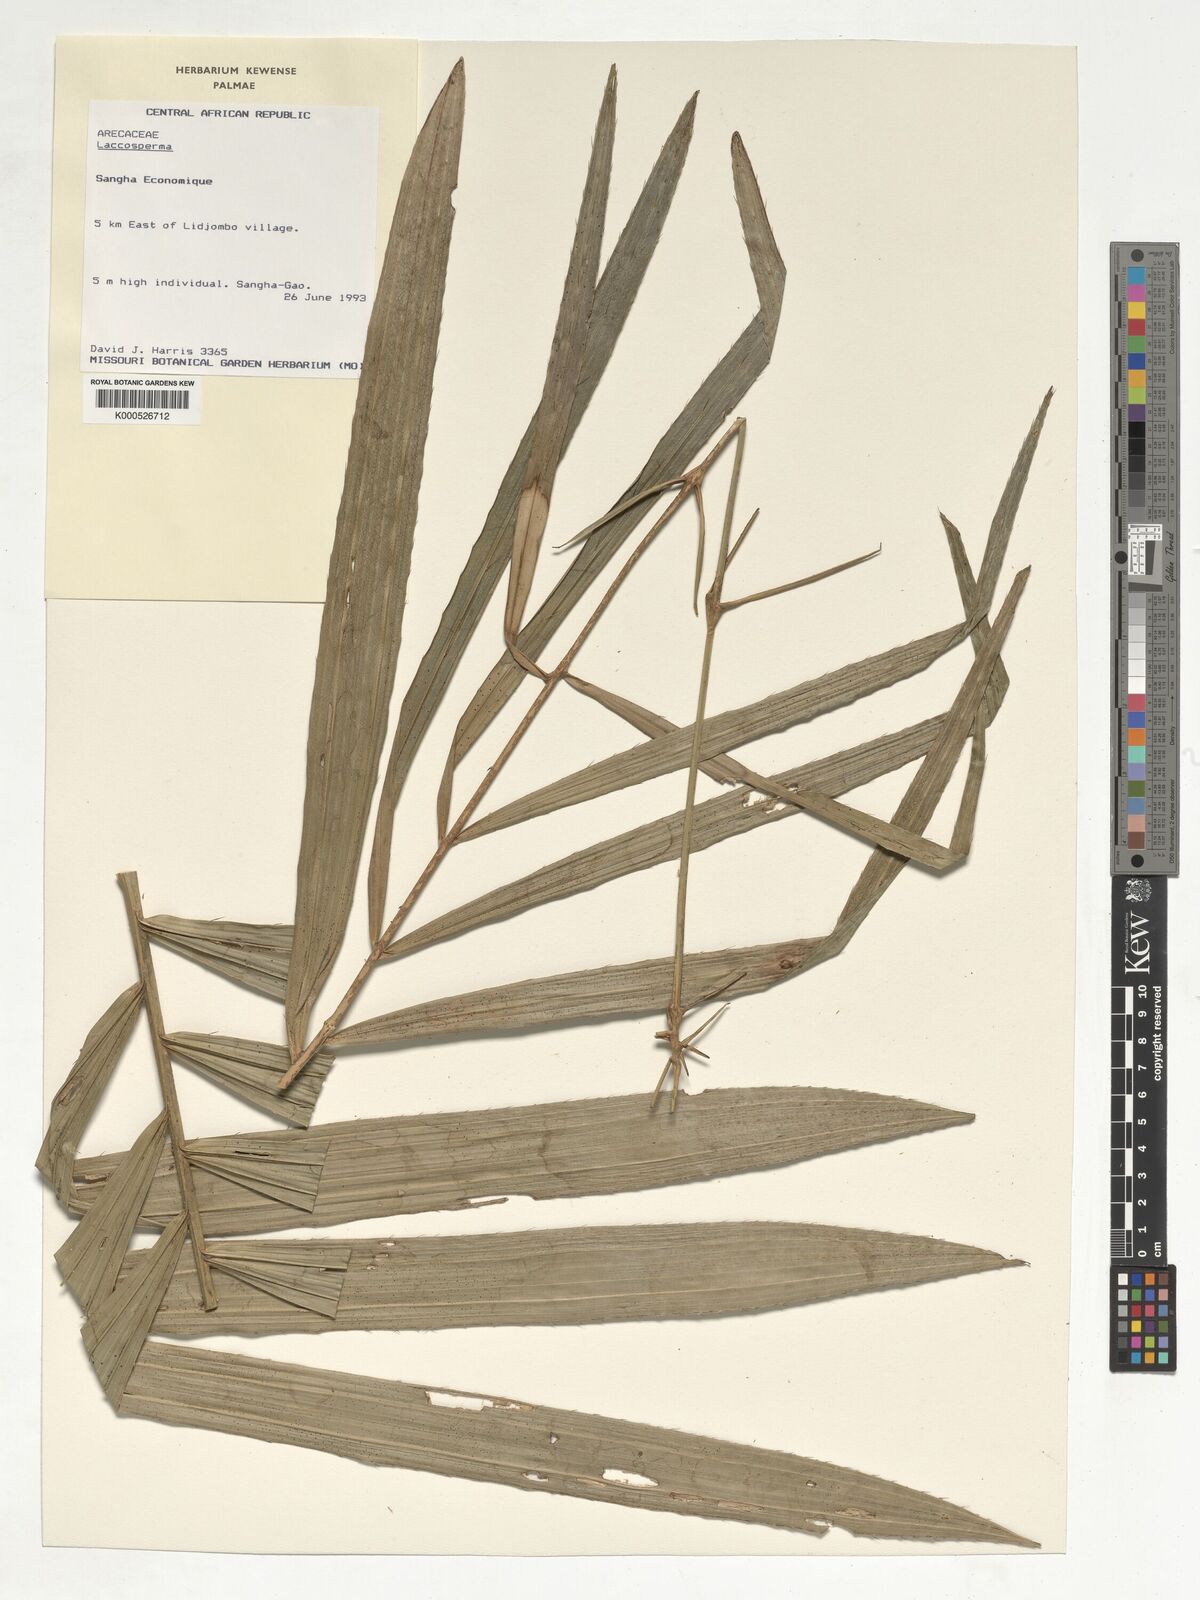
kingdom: Plantae
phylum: Tracheophyta
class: Liliopsida
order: Arecales
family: Arecaceae
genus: Laccosperma
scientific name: Laccosperma
